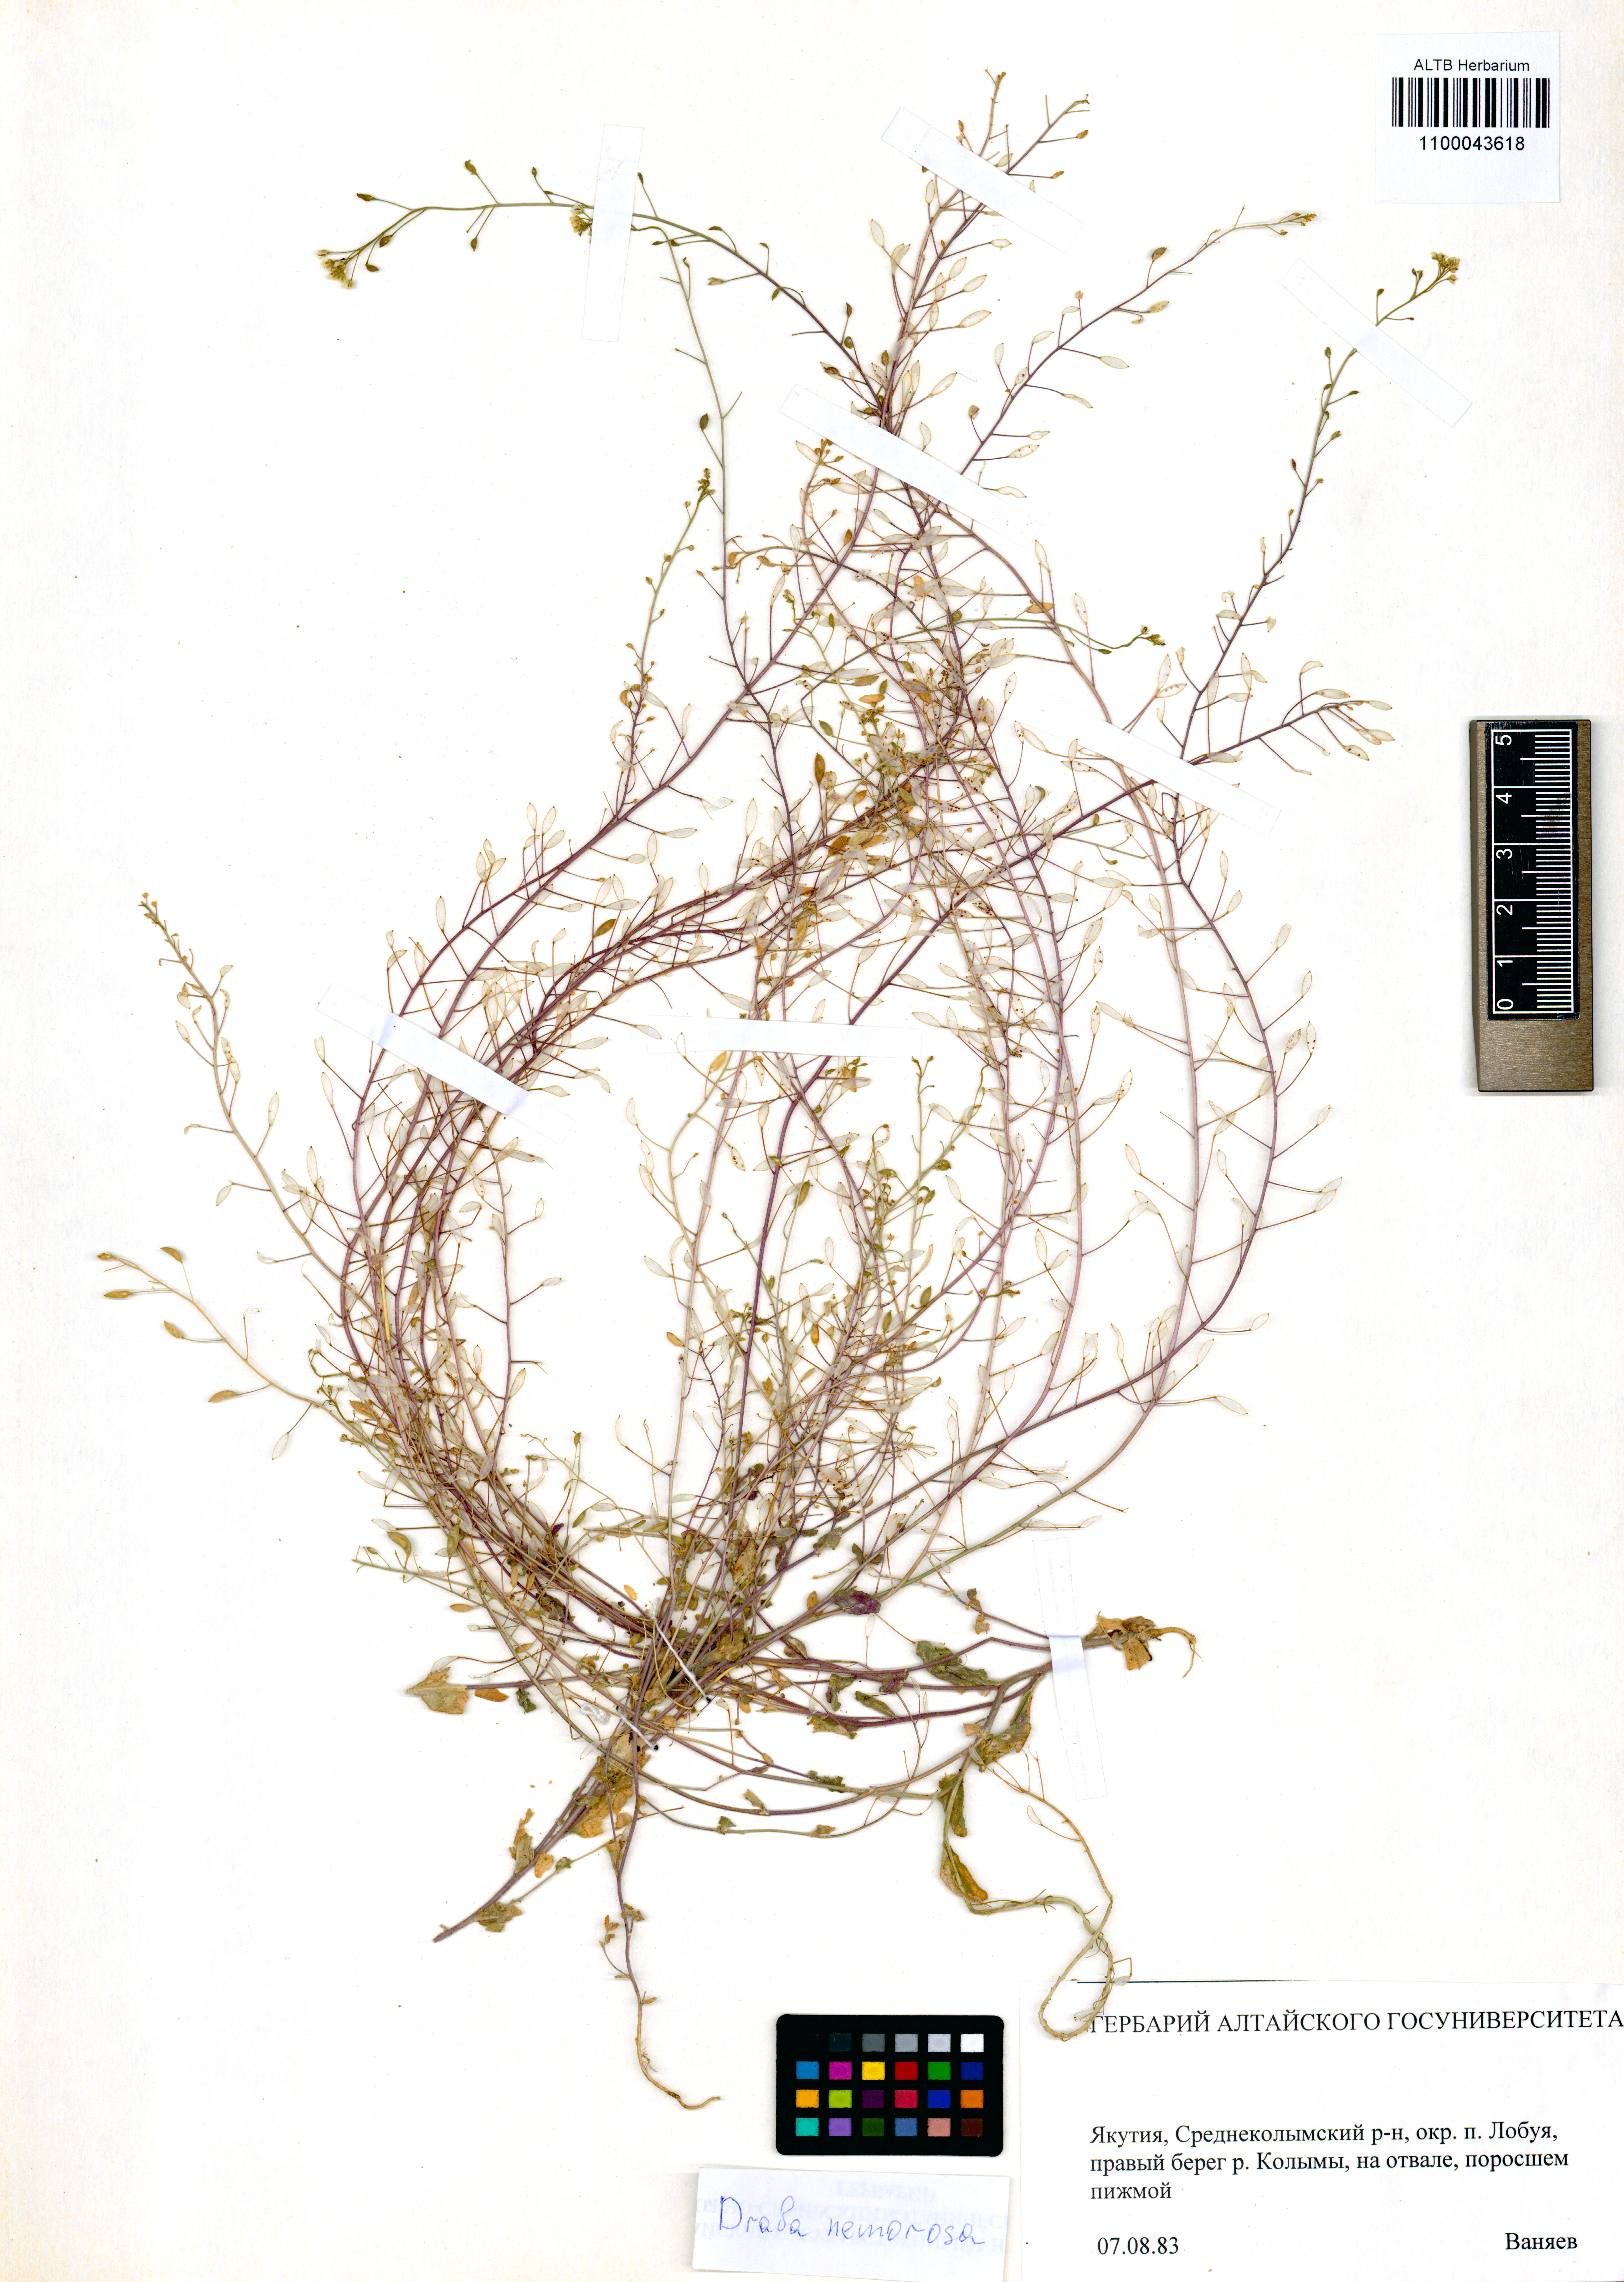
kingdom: Plantae
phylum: Tracheophyta
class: Magnoliopsida
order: Brassicales
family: Brassicaceae
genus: Draba
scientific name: Draba nemorosa
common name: Wood whitlow-grass
